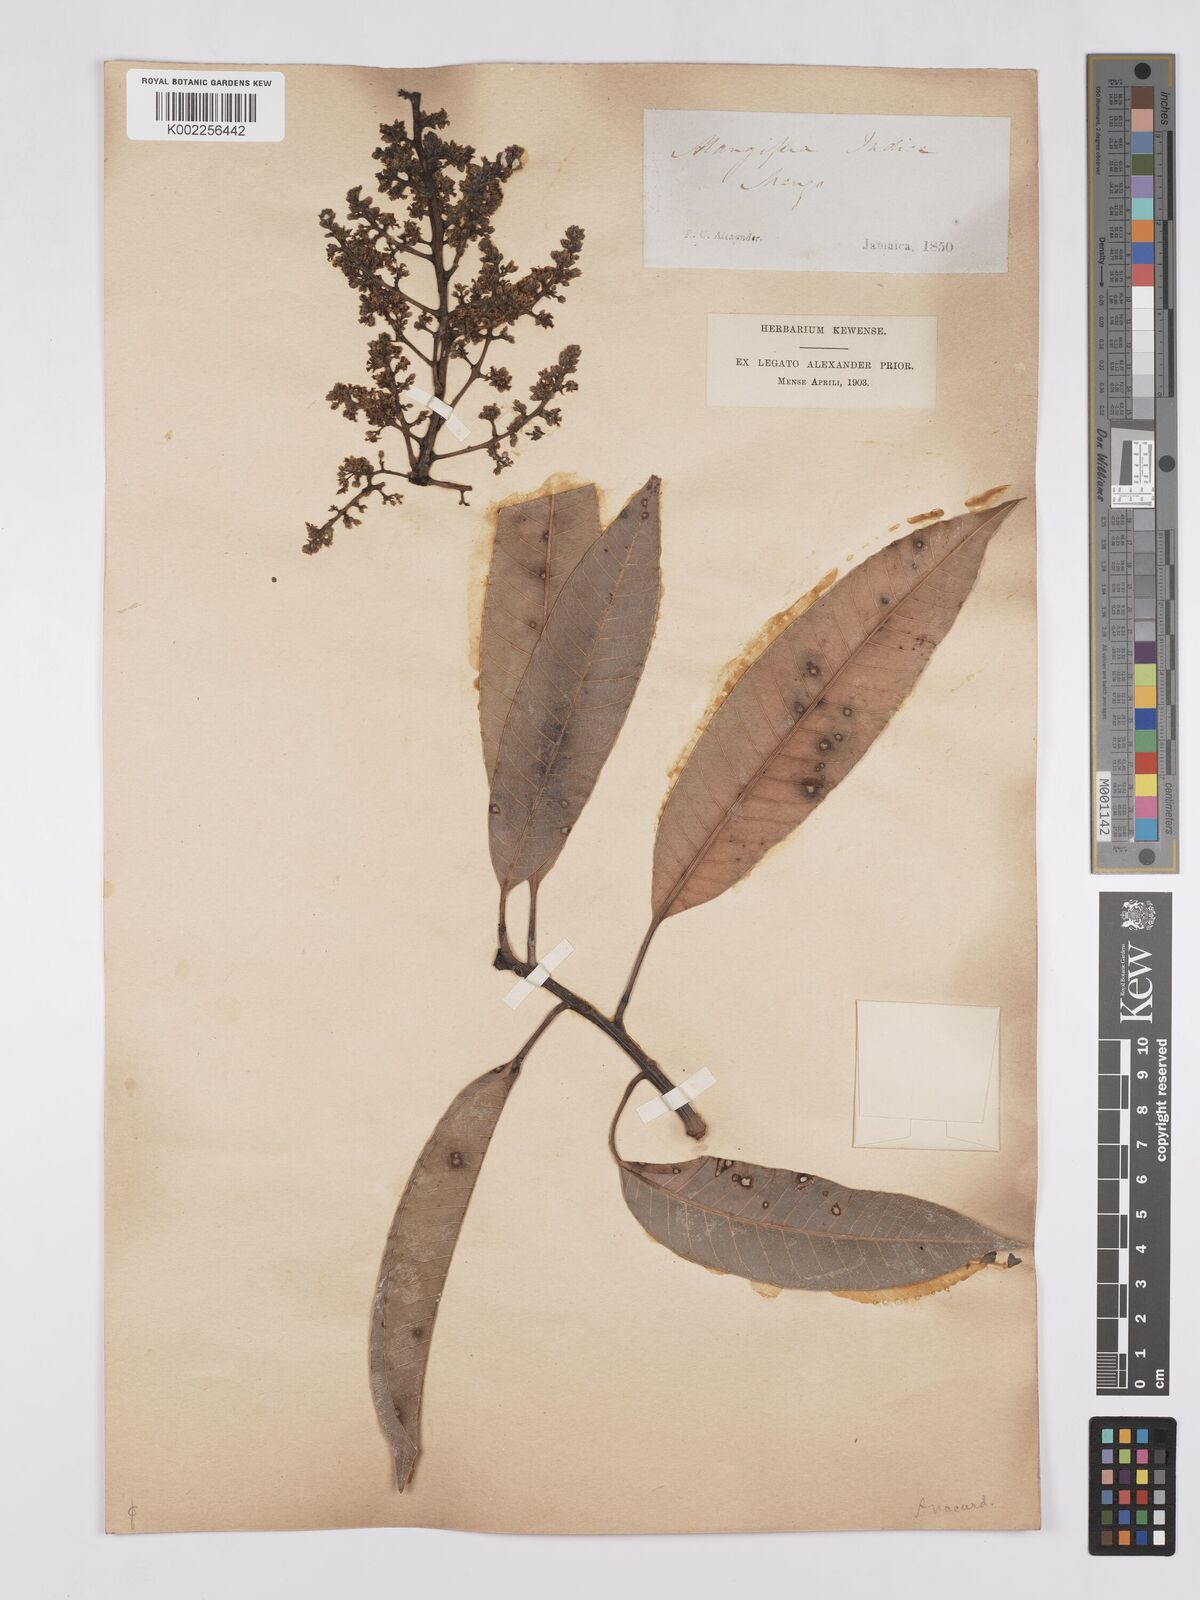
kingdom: Plantae
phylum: Tracheophyta
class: Magnoliopsida
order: Sapindales
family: Anacardiaceae
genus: Mangifera
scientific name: Mangifera indica
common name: Mango
